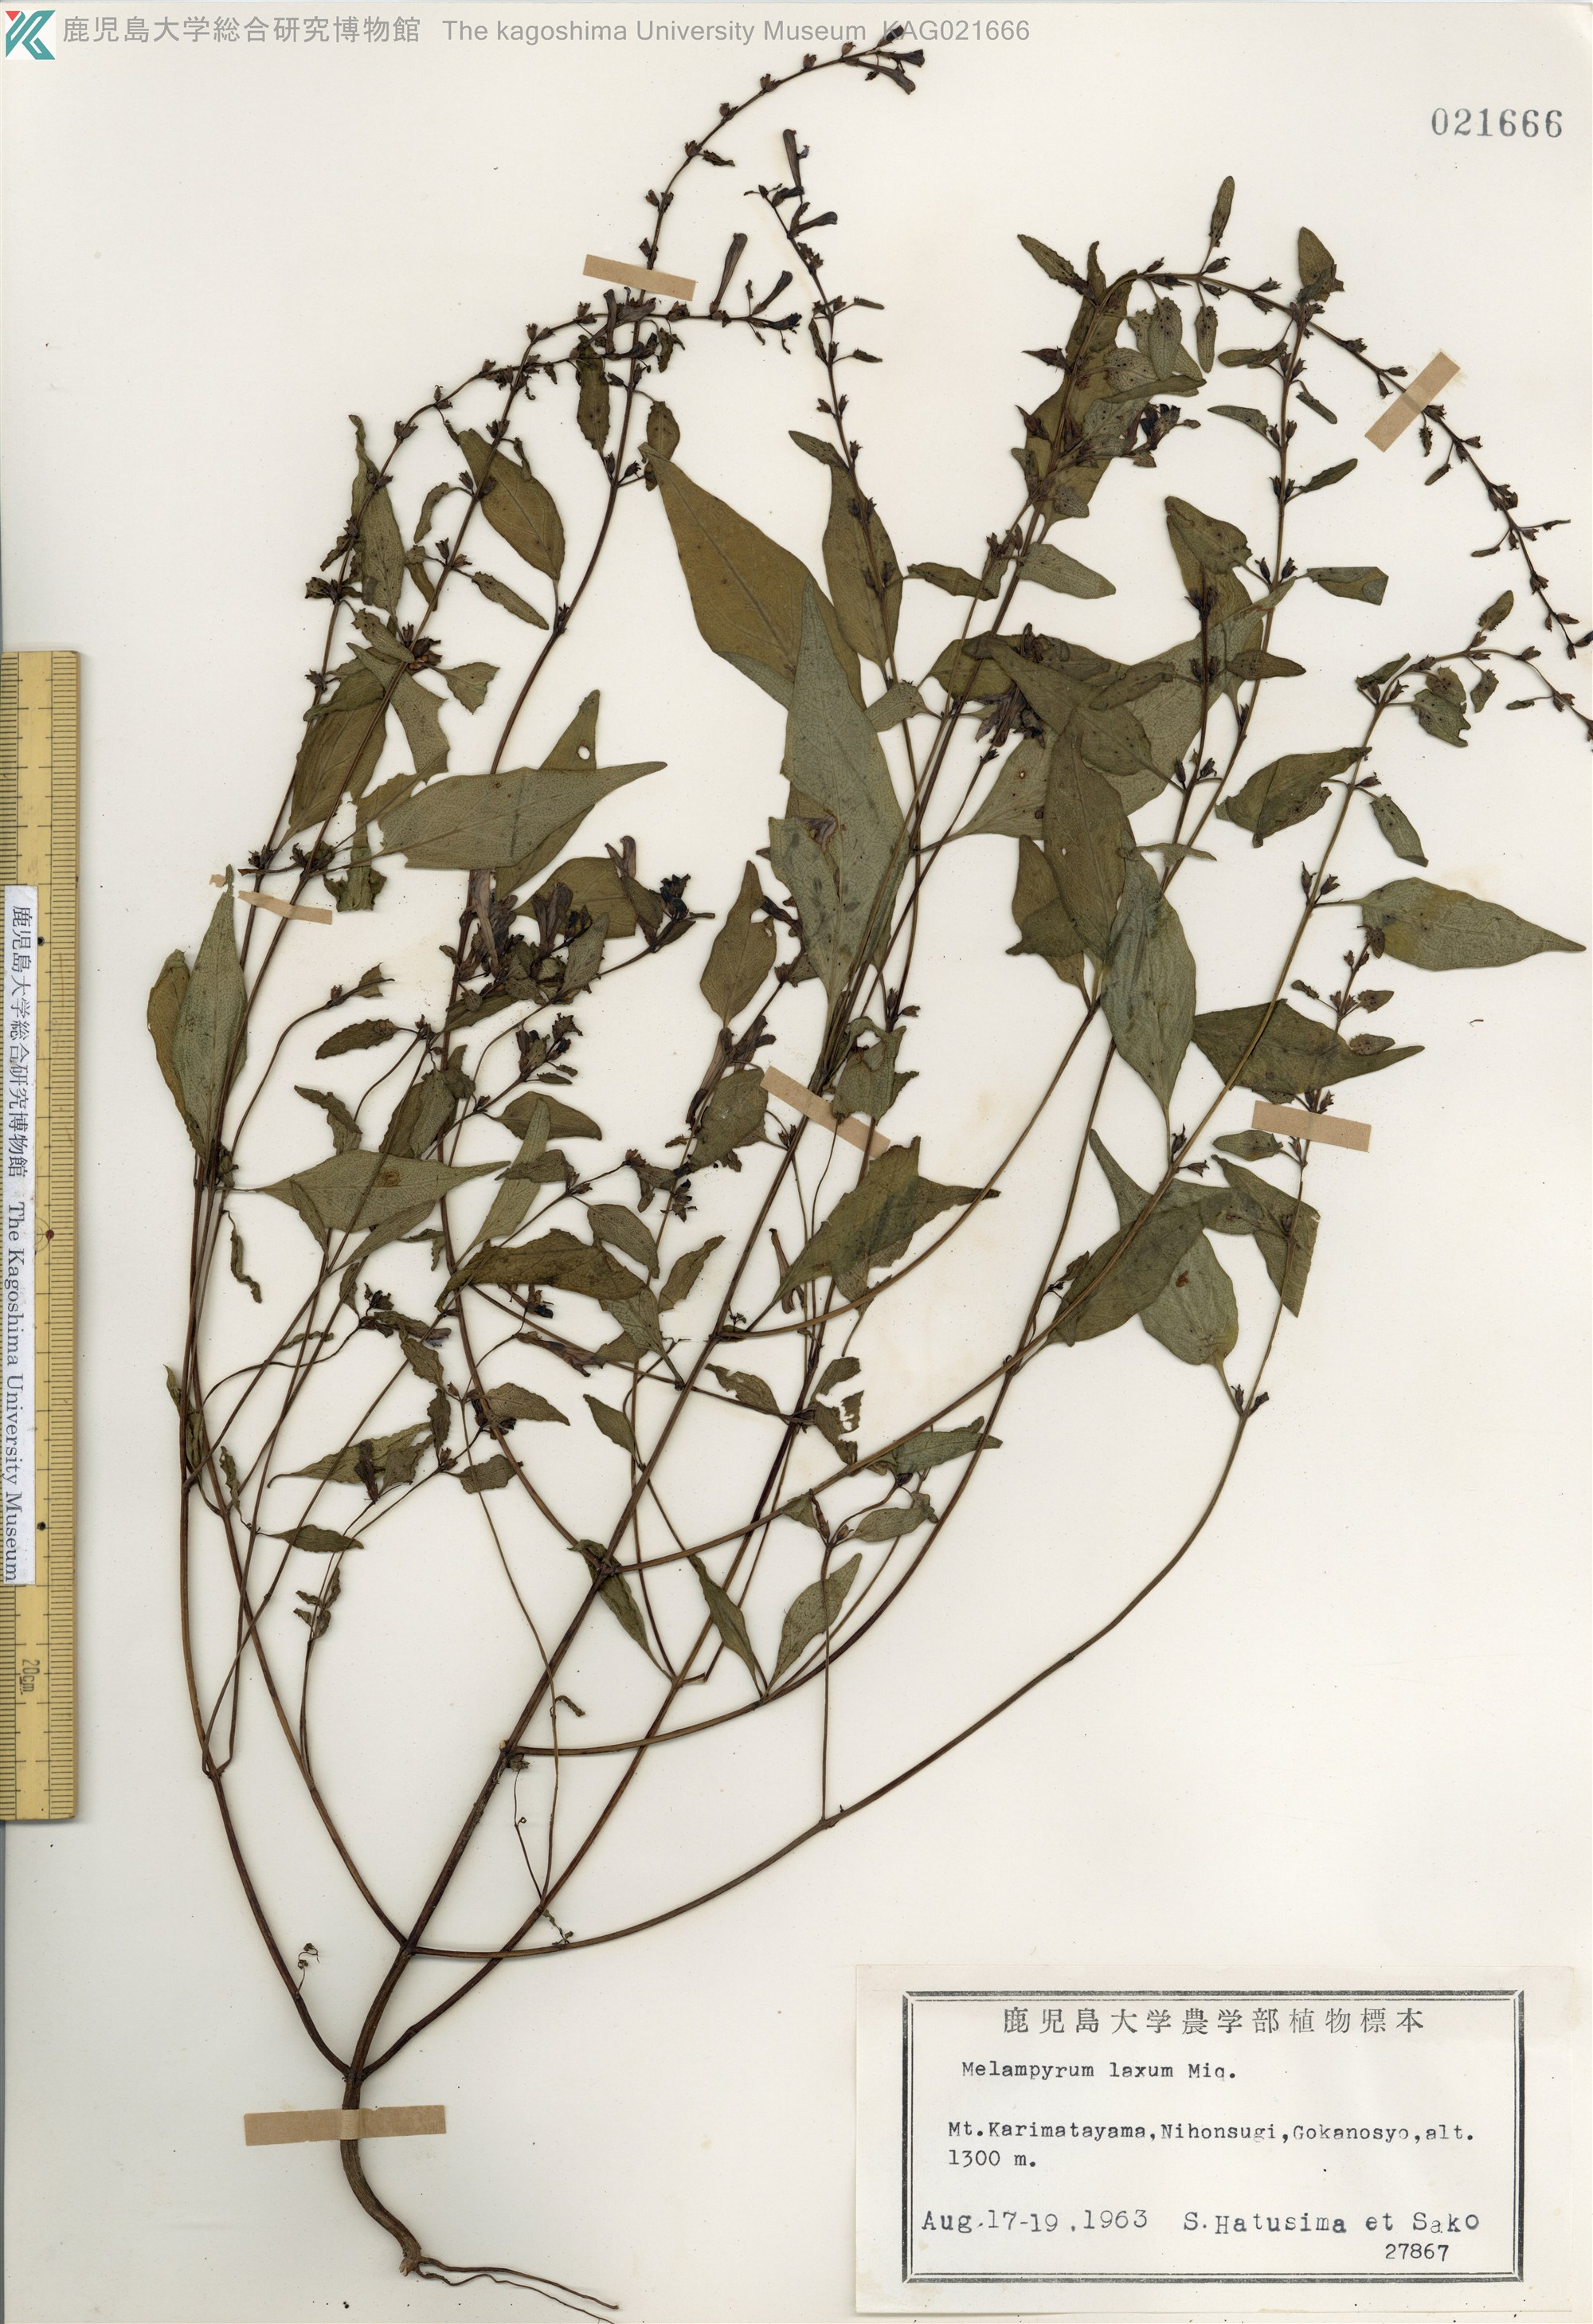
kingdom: Plantae
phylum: Tracheophyta
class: Magnoliopsida
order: Lamiales
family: Orobanchaceae
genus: Melampyrum
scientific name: Melampyrum laxum
